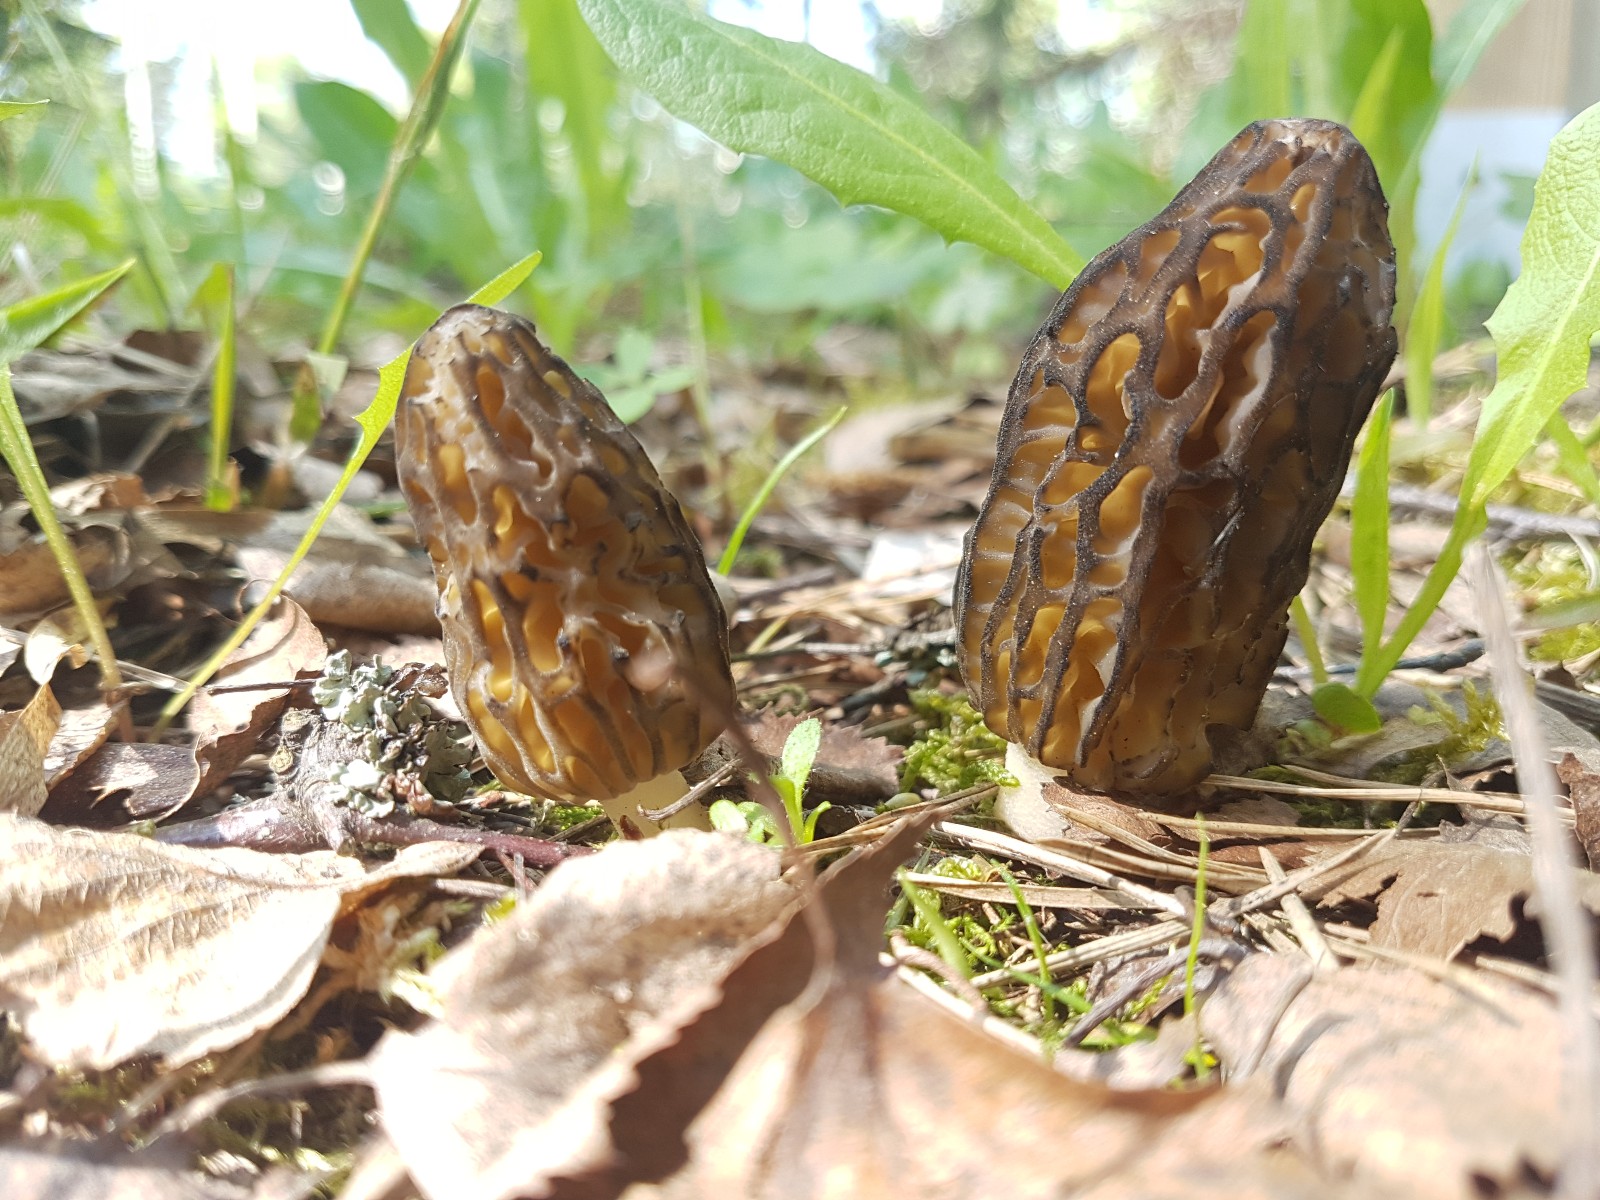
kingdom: Fungi
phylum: Ascomycota
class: Pezizomycetes
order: Pezizales
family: Morchellaceae
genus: Morchella
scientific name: Morchella esculenta
